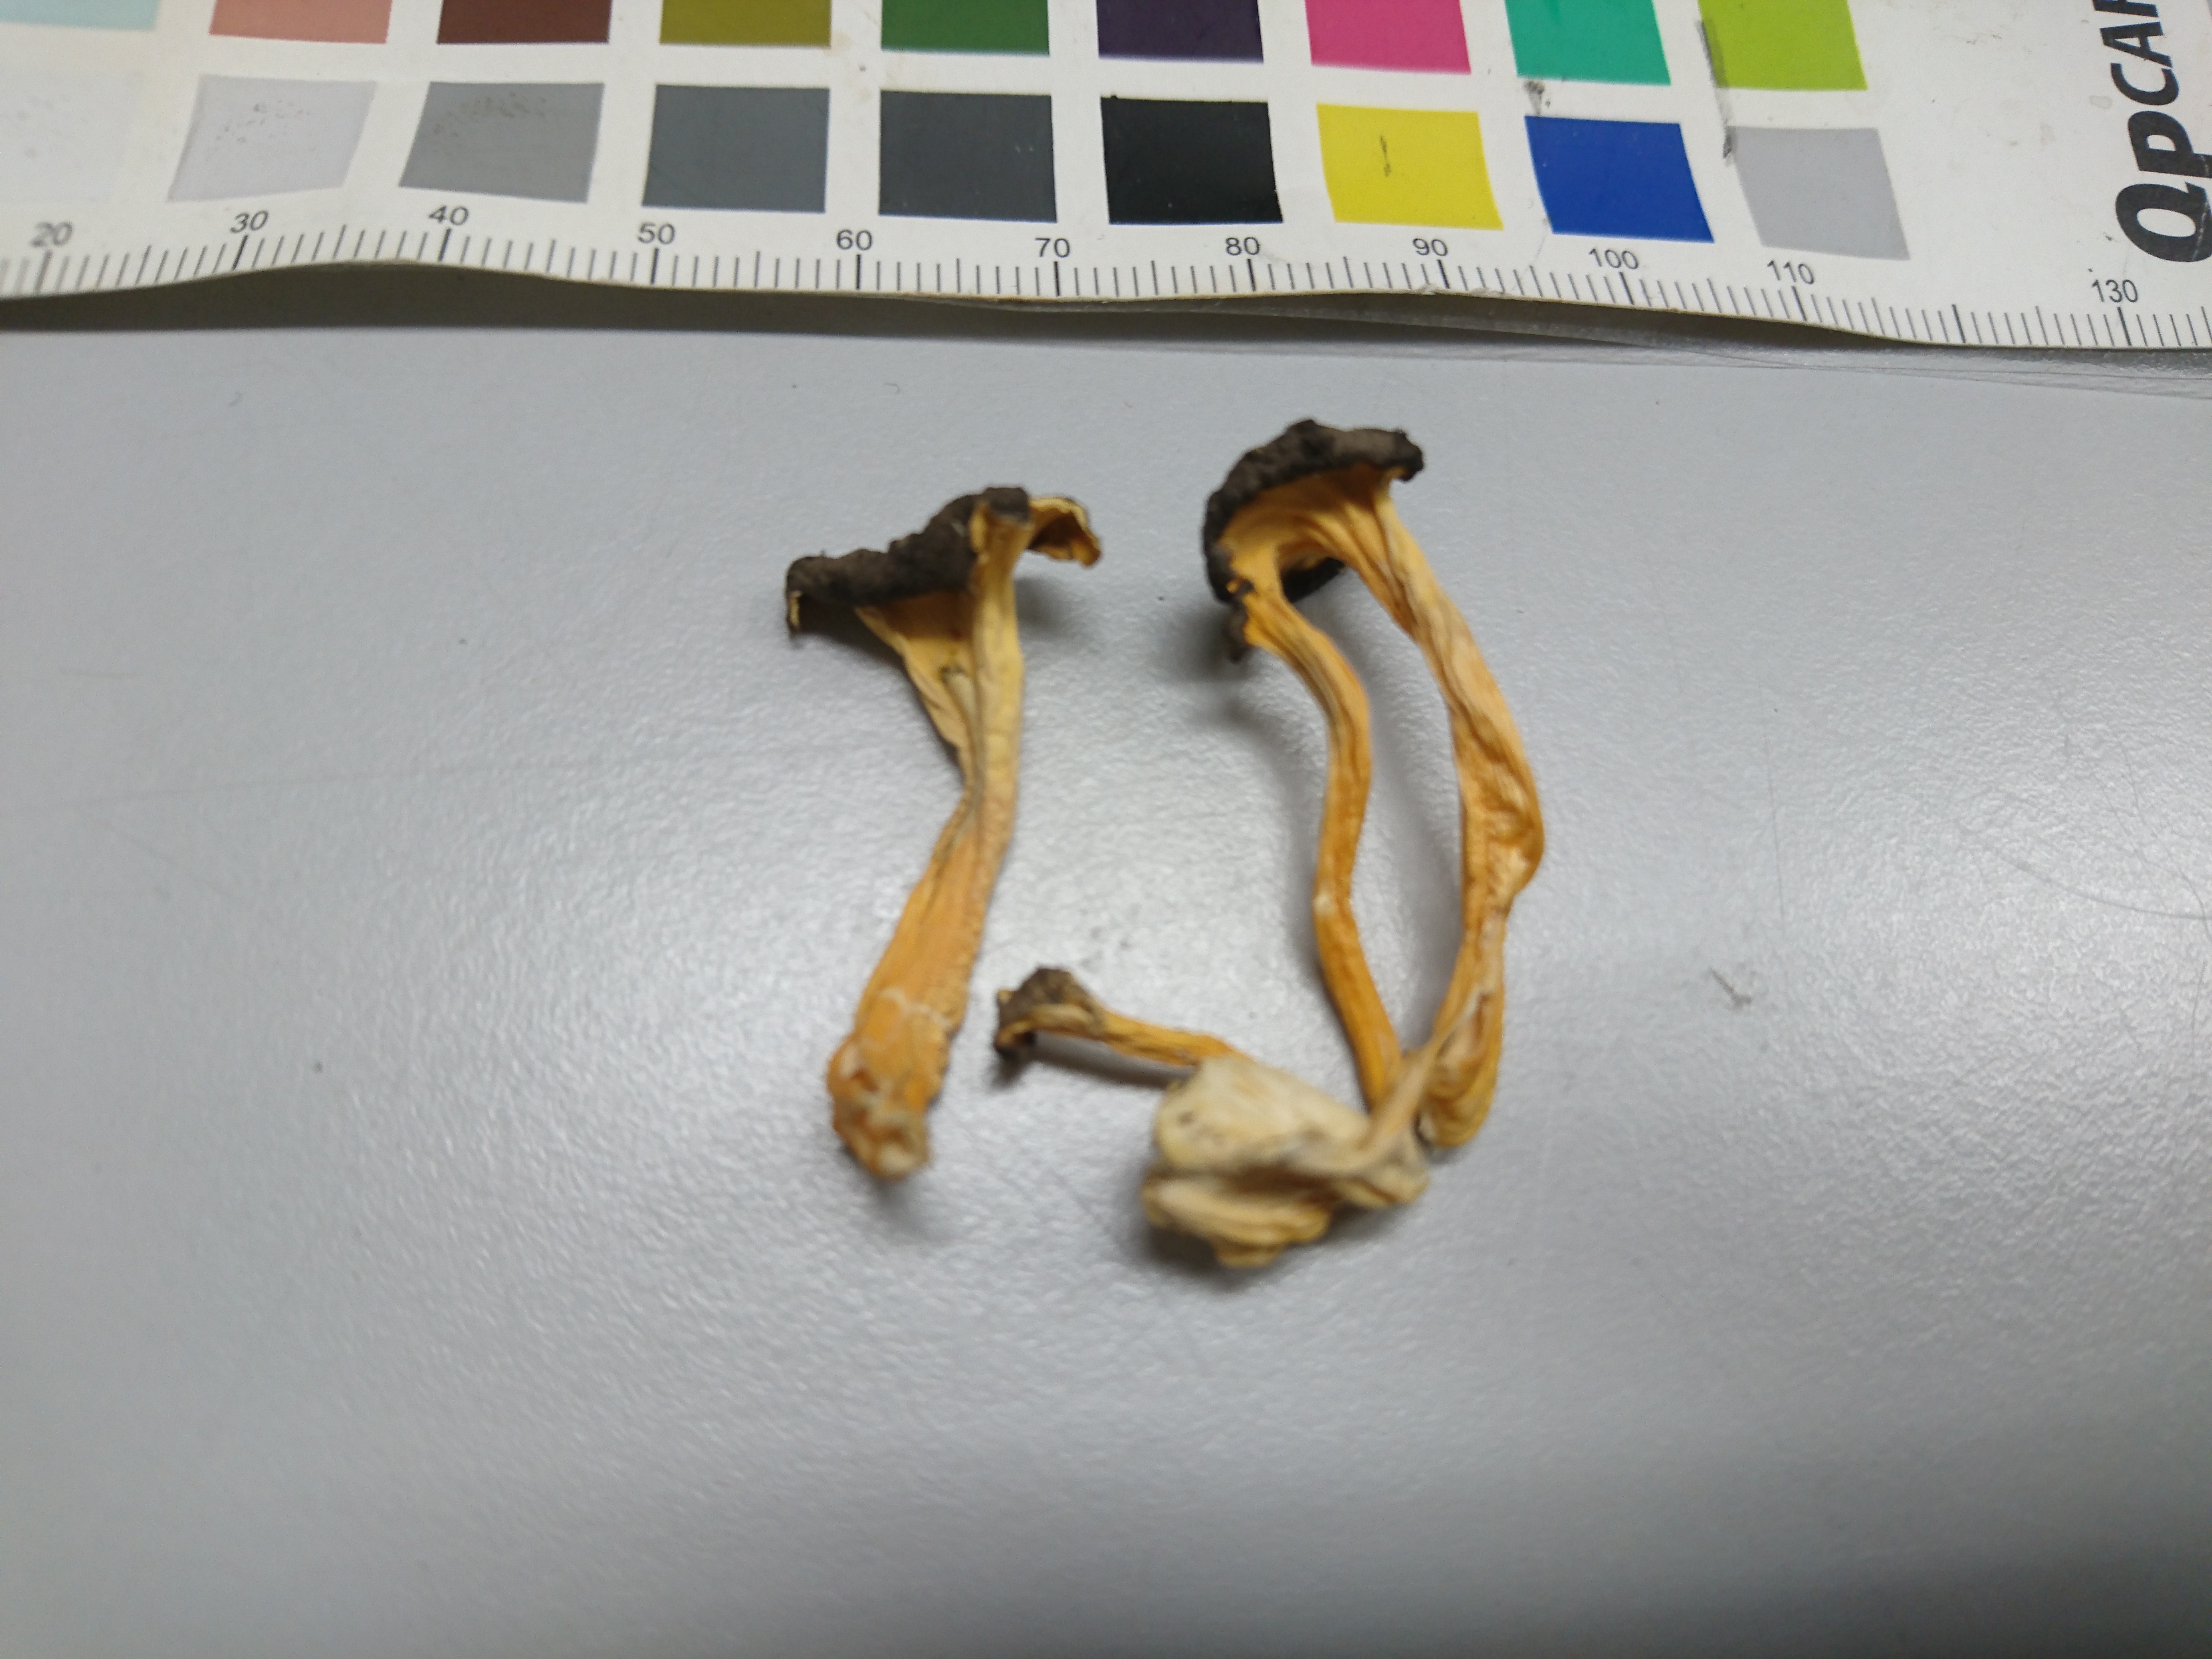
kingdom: Fungi
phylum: Basidiomycota
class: Agaricomycetes
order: Cantharellales
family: Hydnaceae
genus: Craterellus
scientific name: Craterellus lutescens
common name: Golden chanterelle
